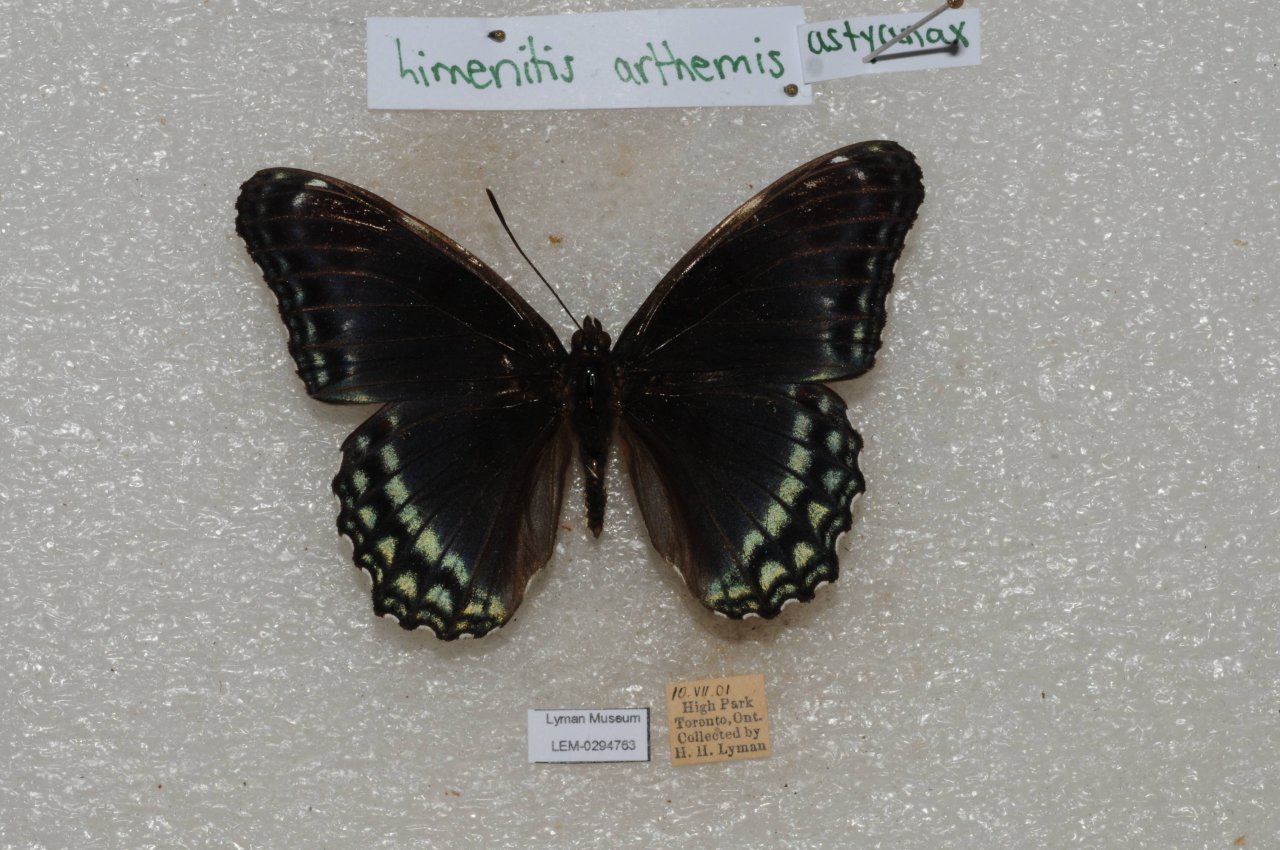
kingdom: Animalia
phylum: Arthropoda
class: Insecta
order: Lepidoptera
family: Nymphalidae
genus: Limenitis
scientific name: Limenitis arthemis
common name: Red-spotted Admiral
